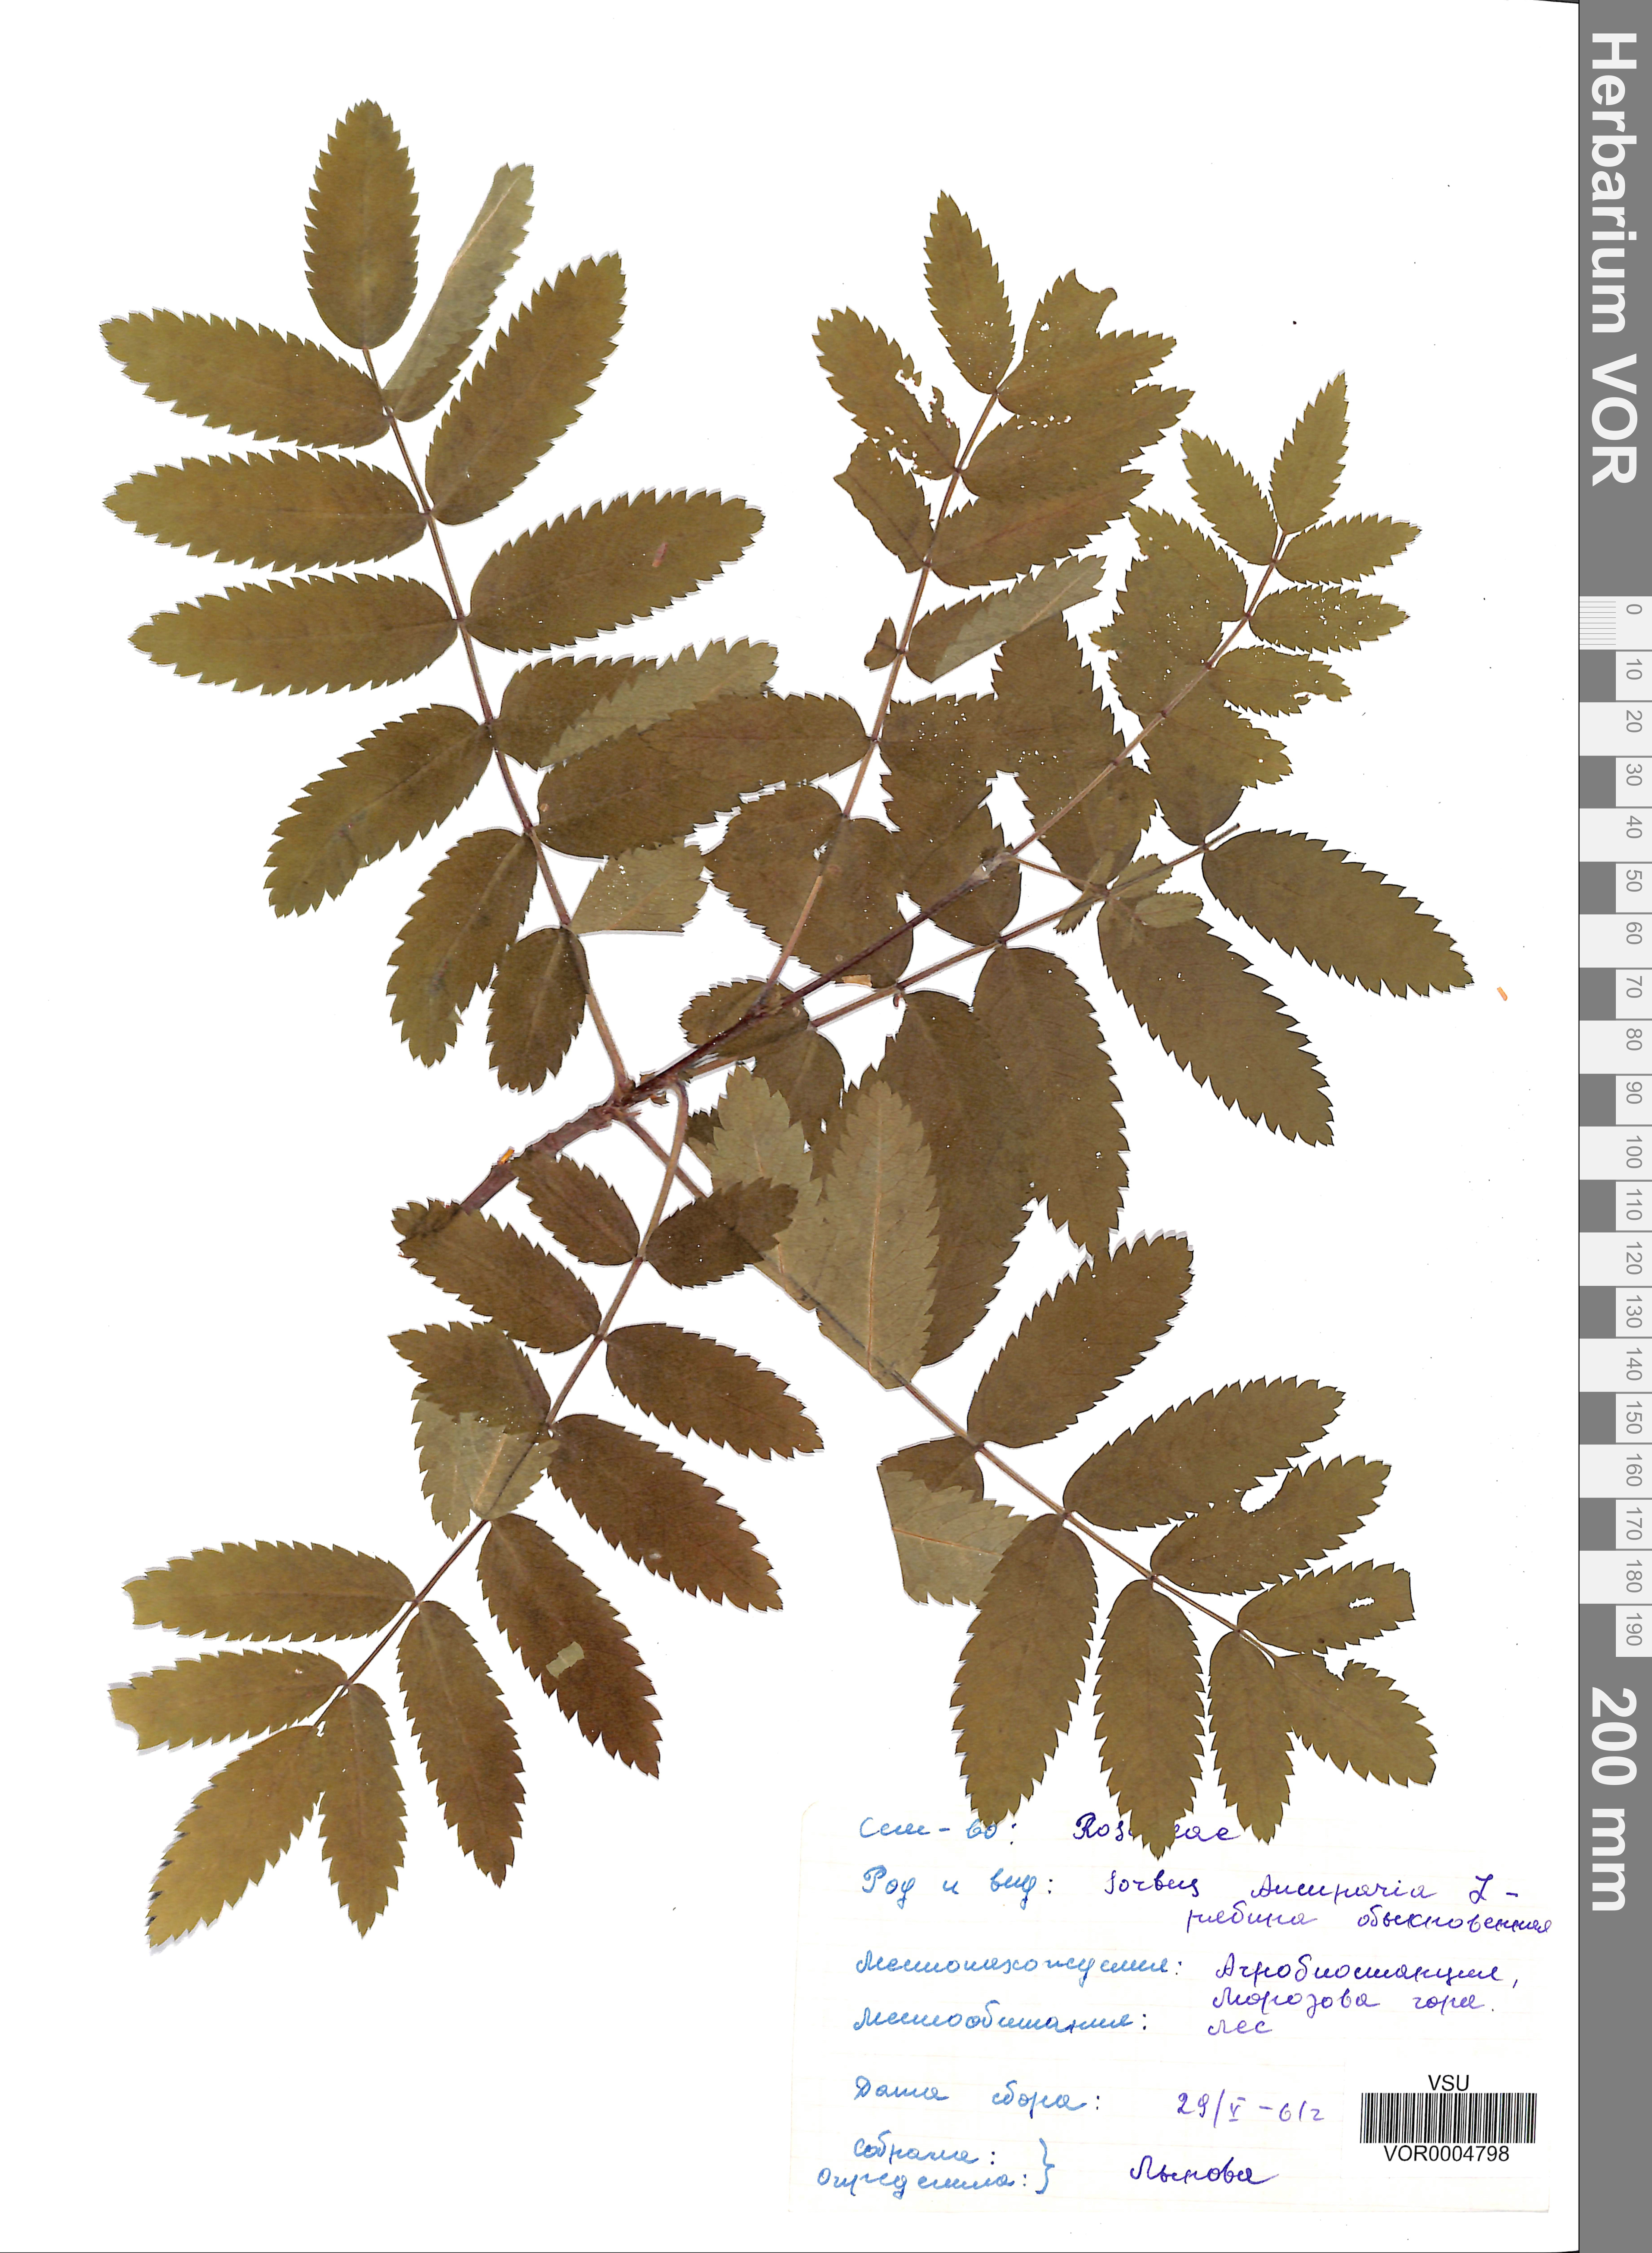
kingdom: Plantae
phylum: Tracheophyta
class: Magnoliopsida
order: Rosales
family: Rosaceae
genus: Sorbus
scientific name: Sorbus aucuparia
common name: Rowan
